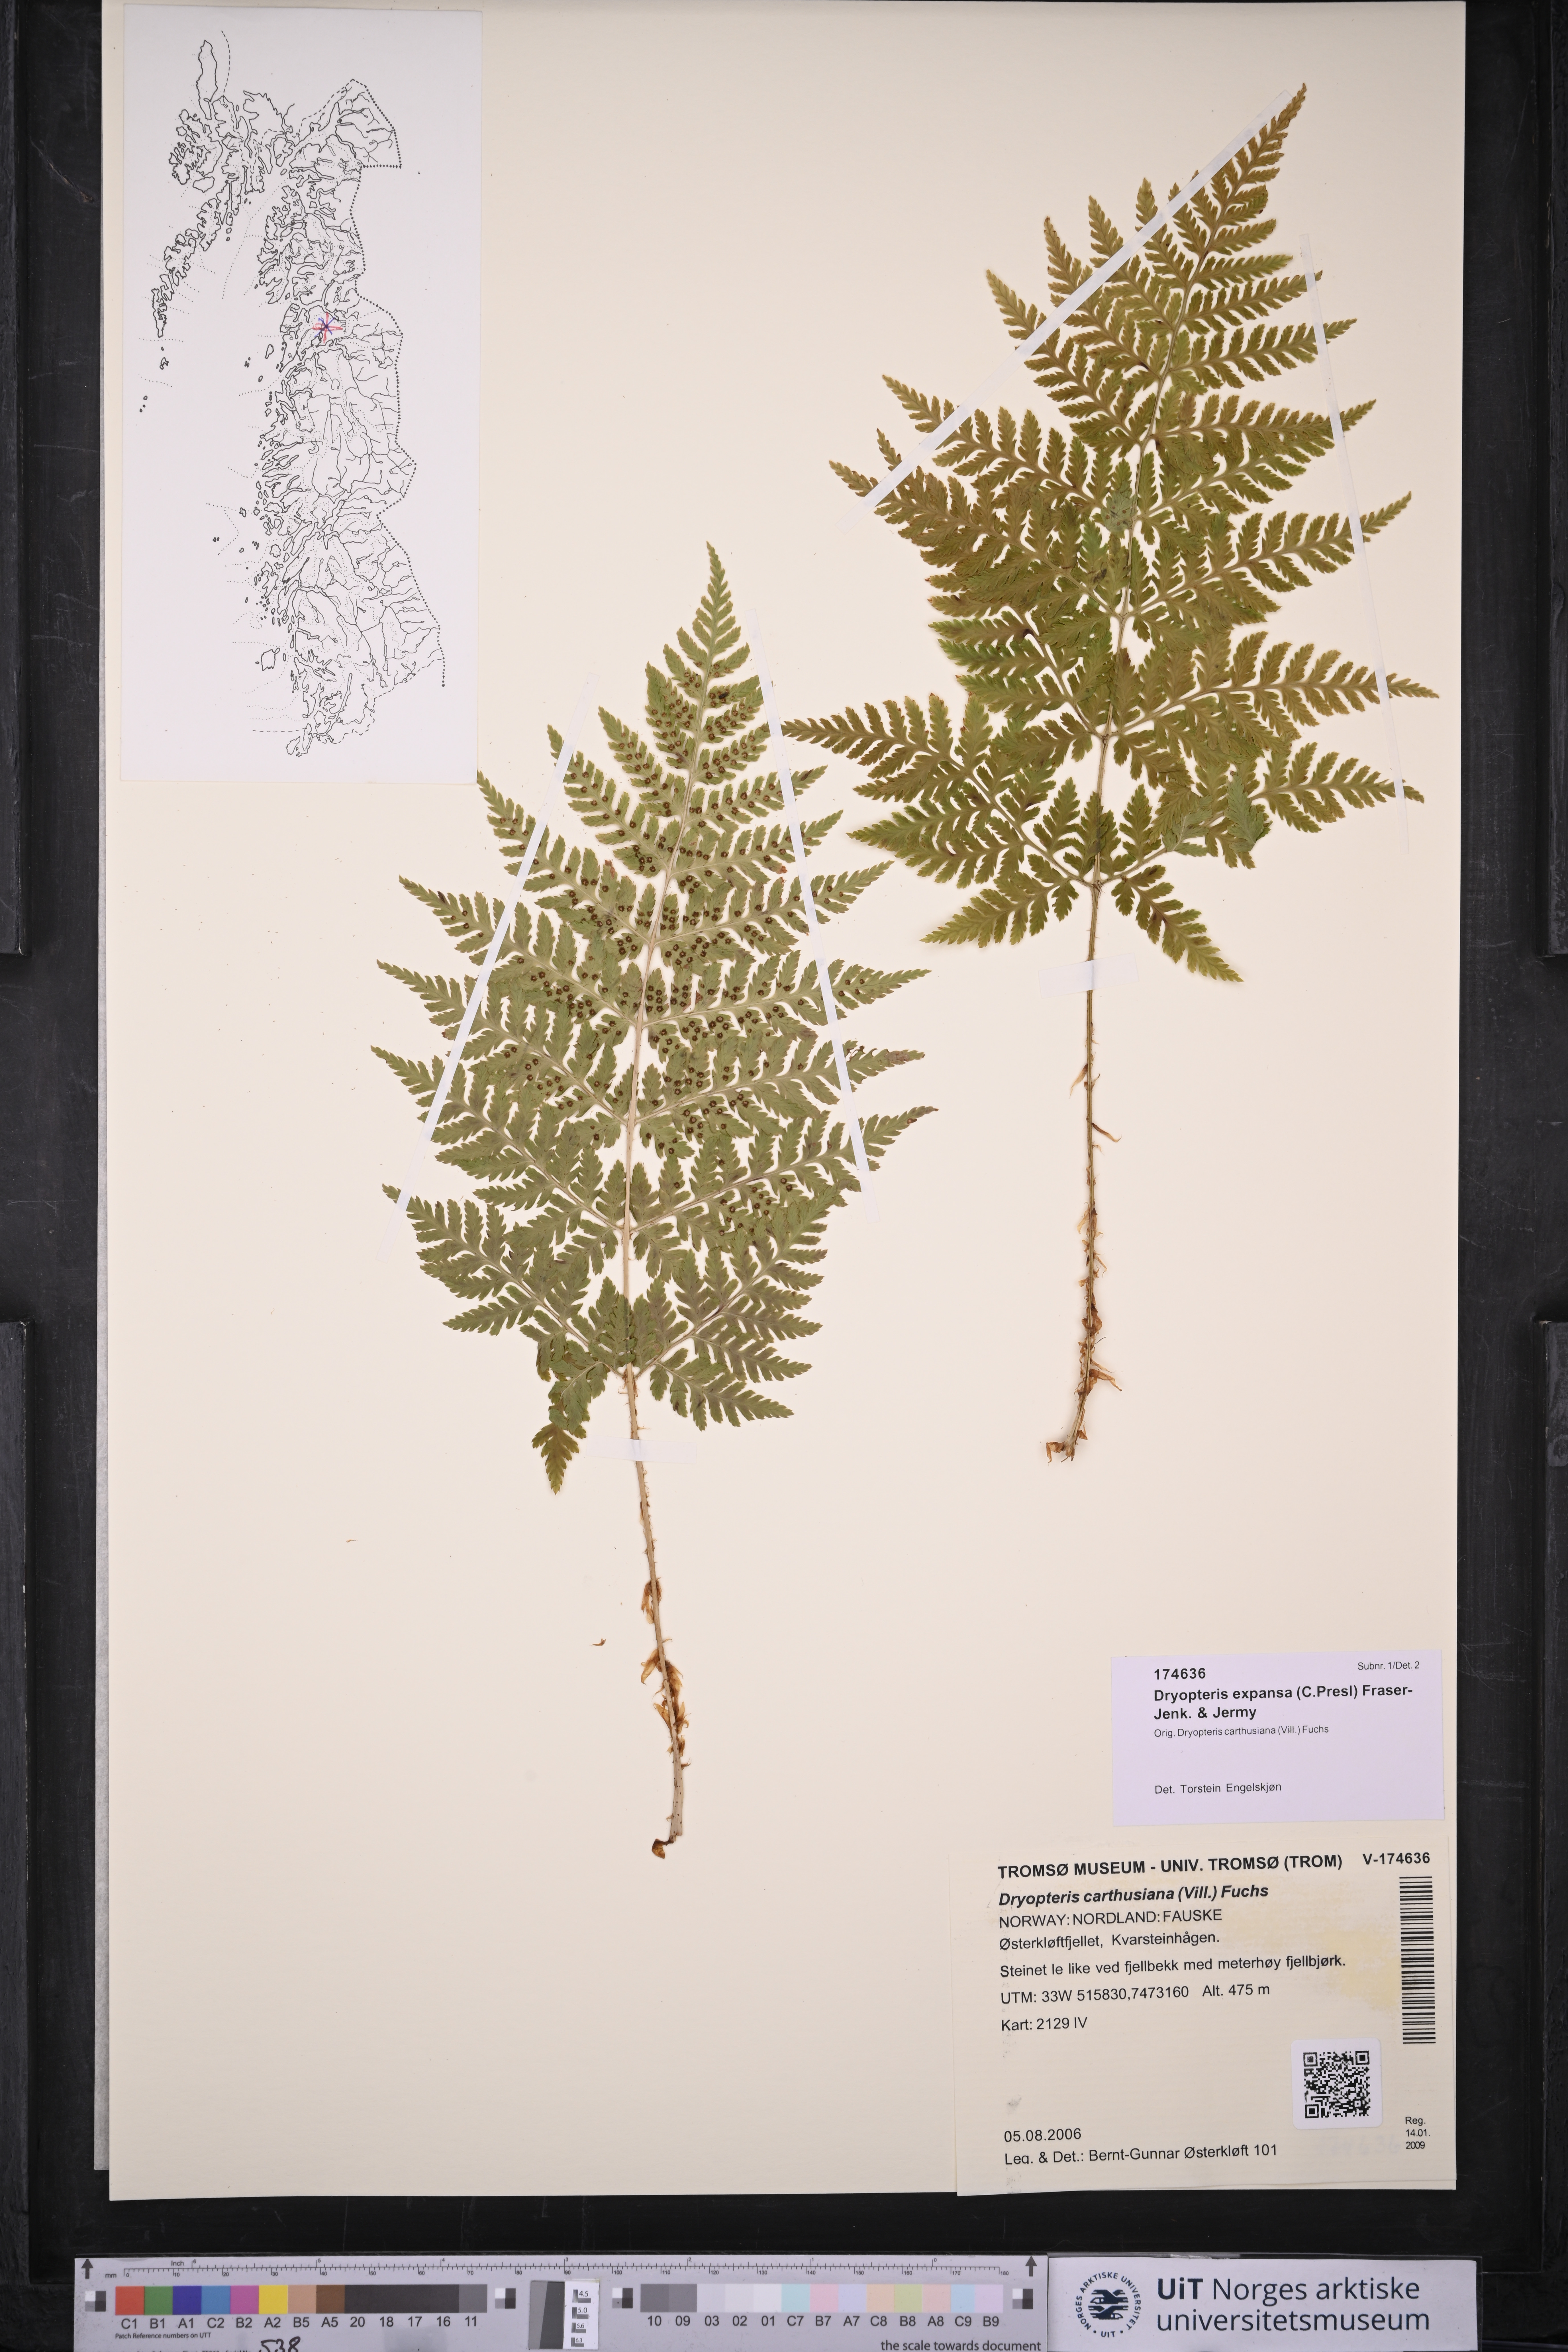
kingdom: Plantae
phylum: Tracheophyta
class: Polypodiopsida
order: Polypodiales
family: Dryopteridaceae
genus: Dryopteris
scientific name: Dryopteris expansa
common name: Northern buckler fern
